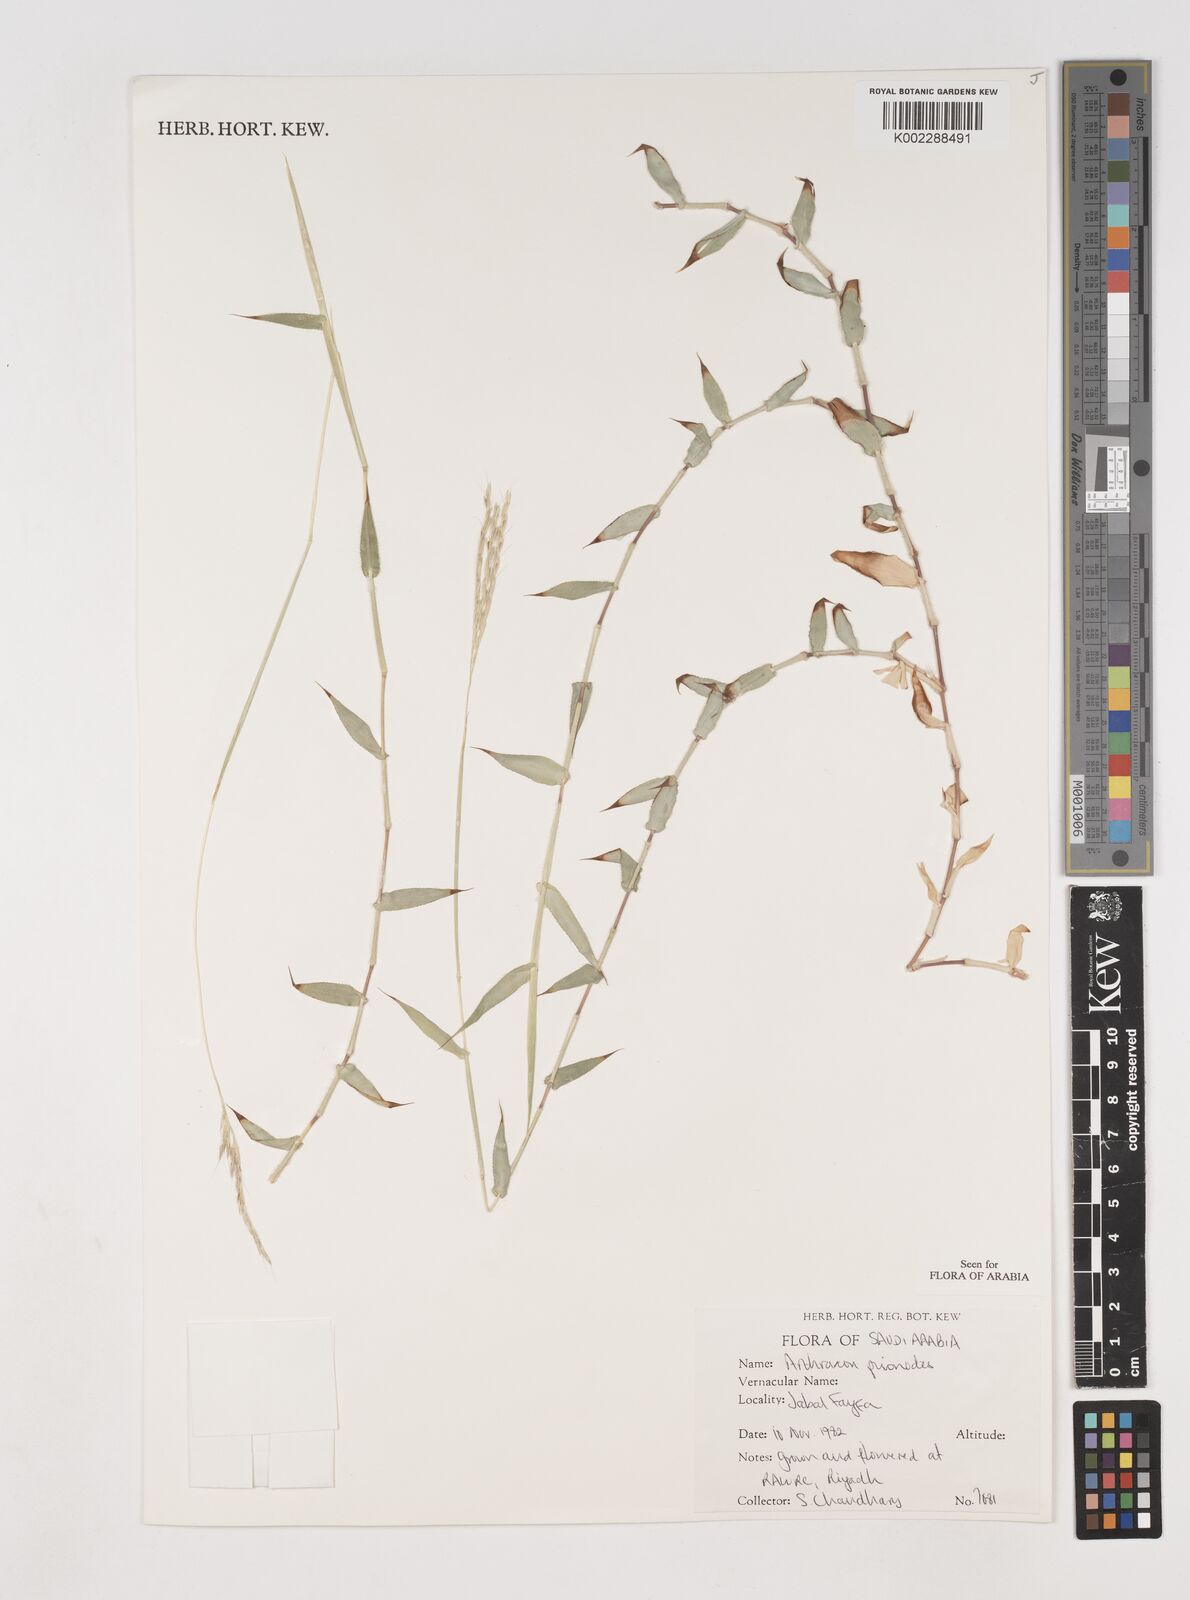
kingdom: Plantae
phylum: Tracheophyta
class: Liliopsida
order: Poales
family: Poaceae
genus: Arthraxon
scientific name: Arthraxon prionodes
